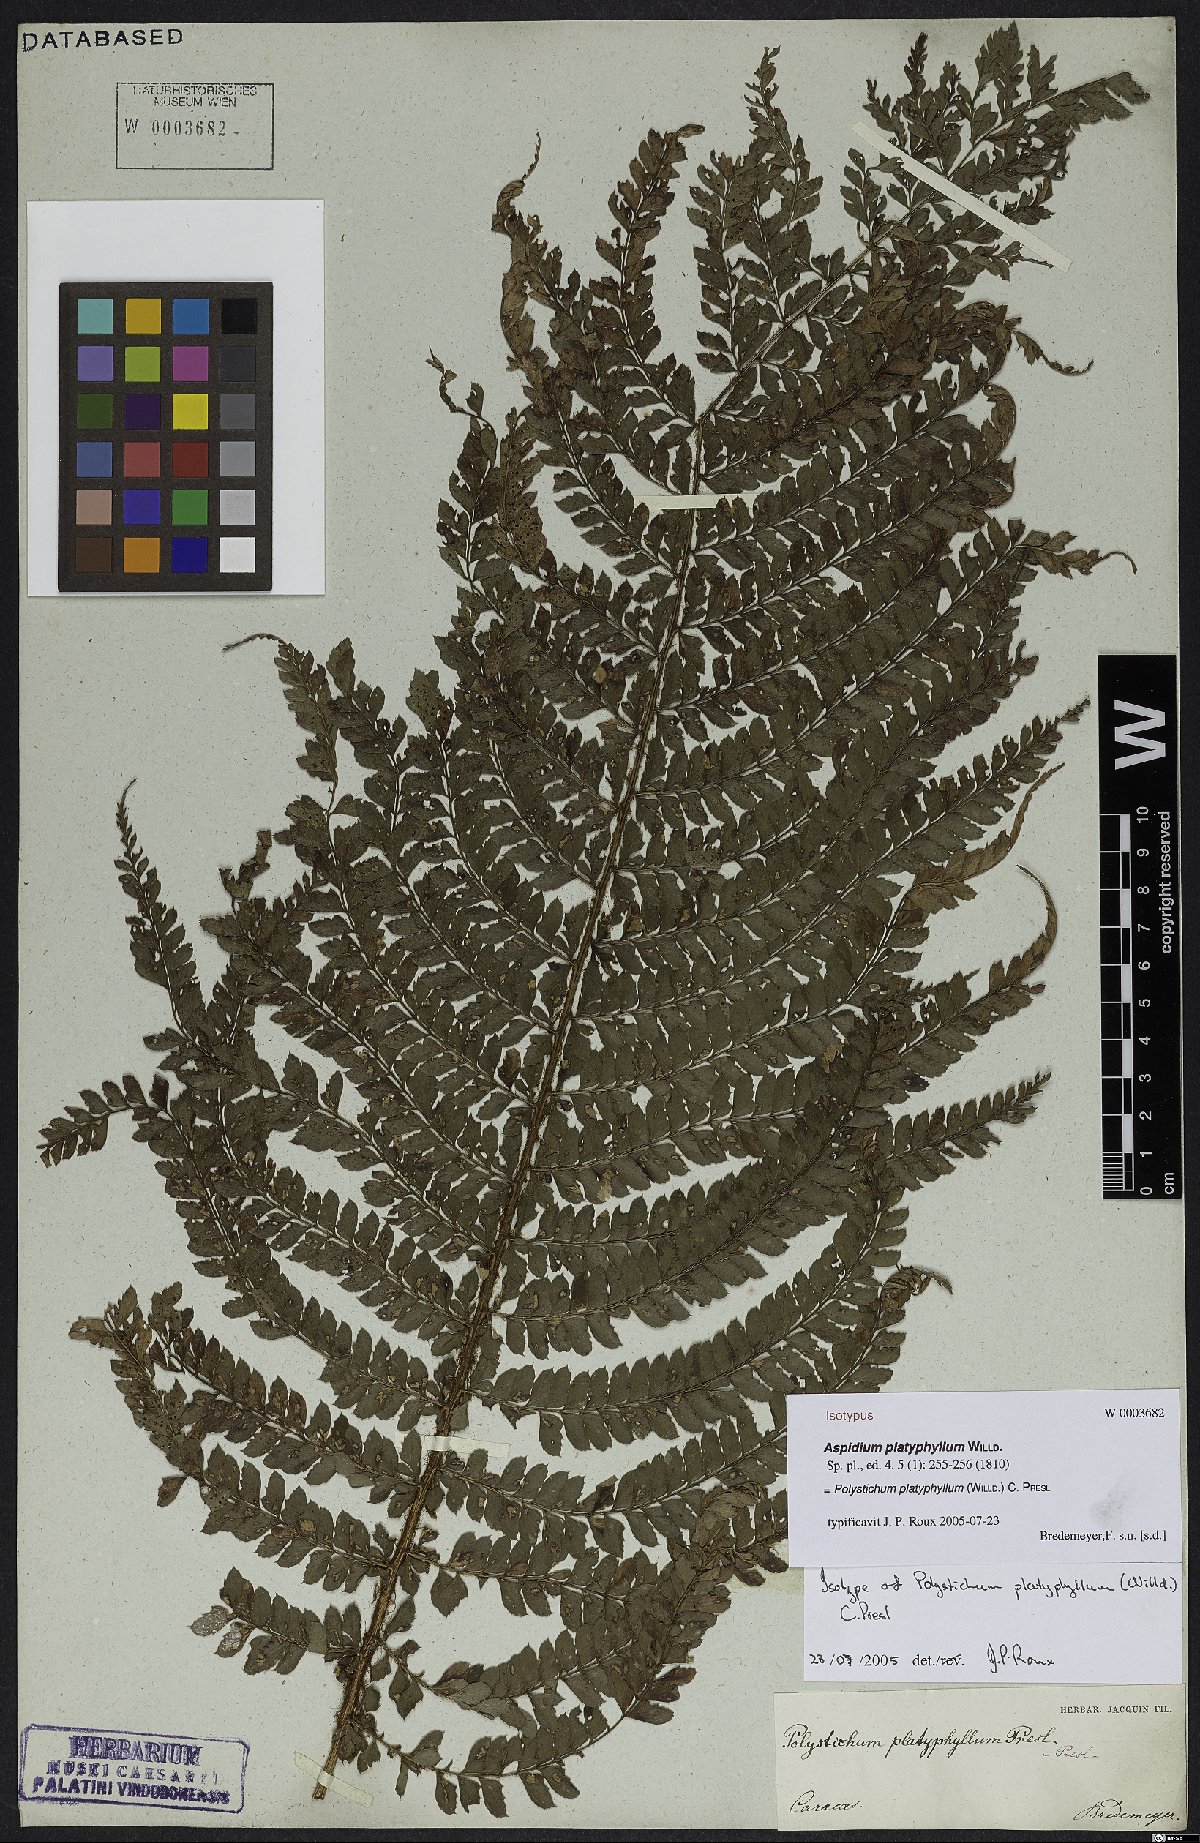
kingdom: Plantae
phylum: Tracheophyta
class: Polypodiopsida
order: Polypodiales
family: Dryopteridaceae
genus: Polystichum
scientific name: Polystichum platyphyllum
